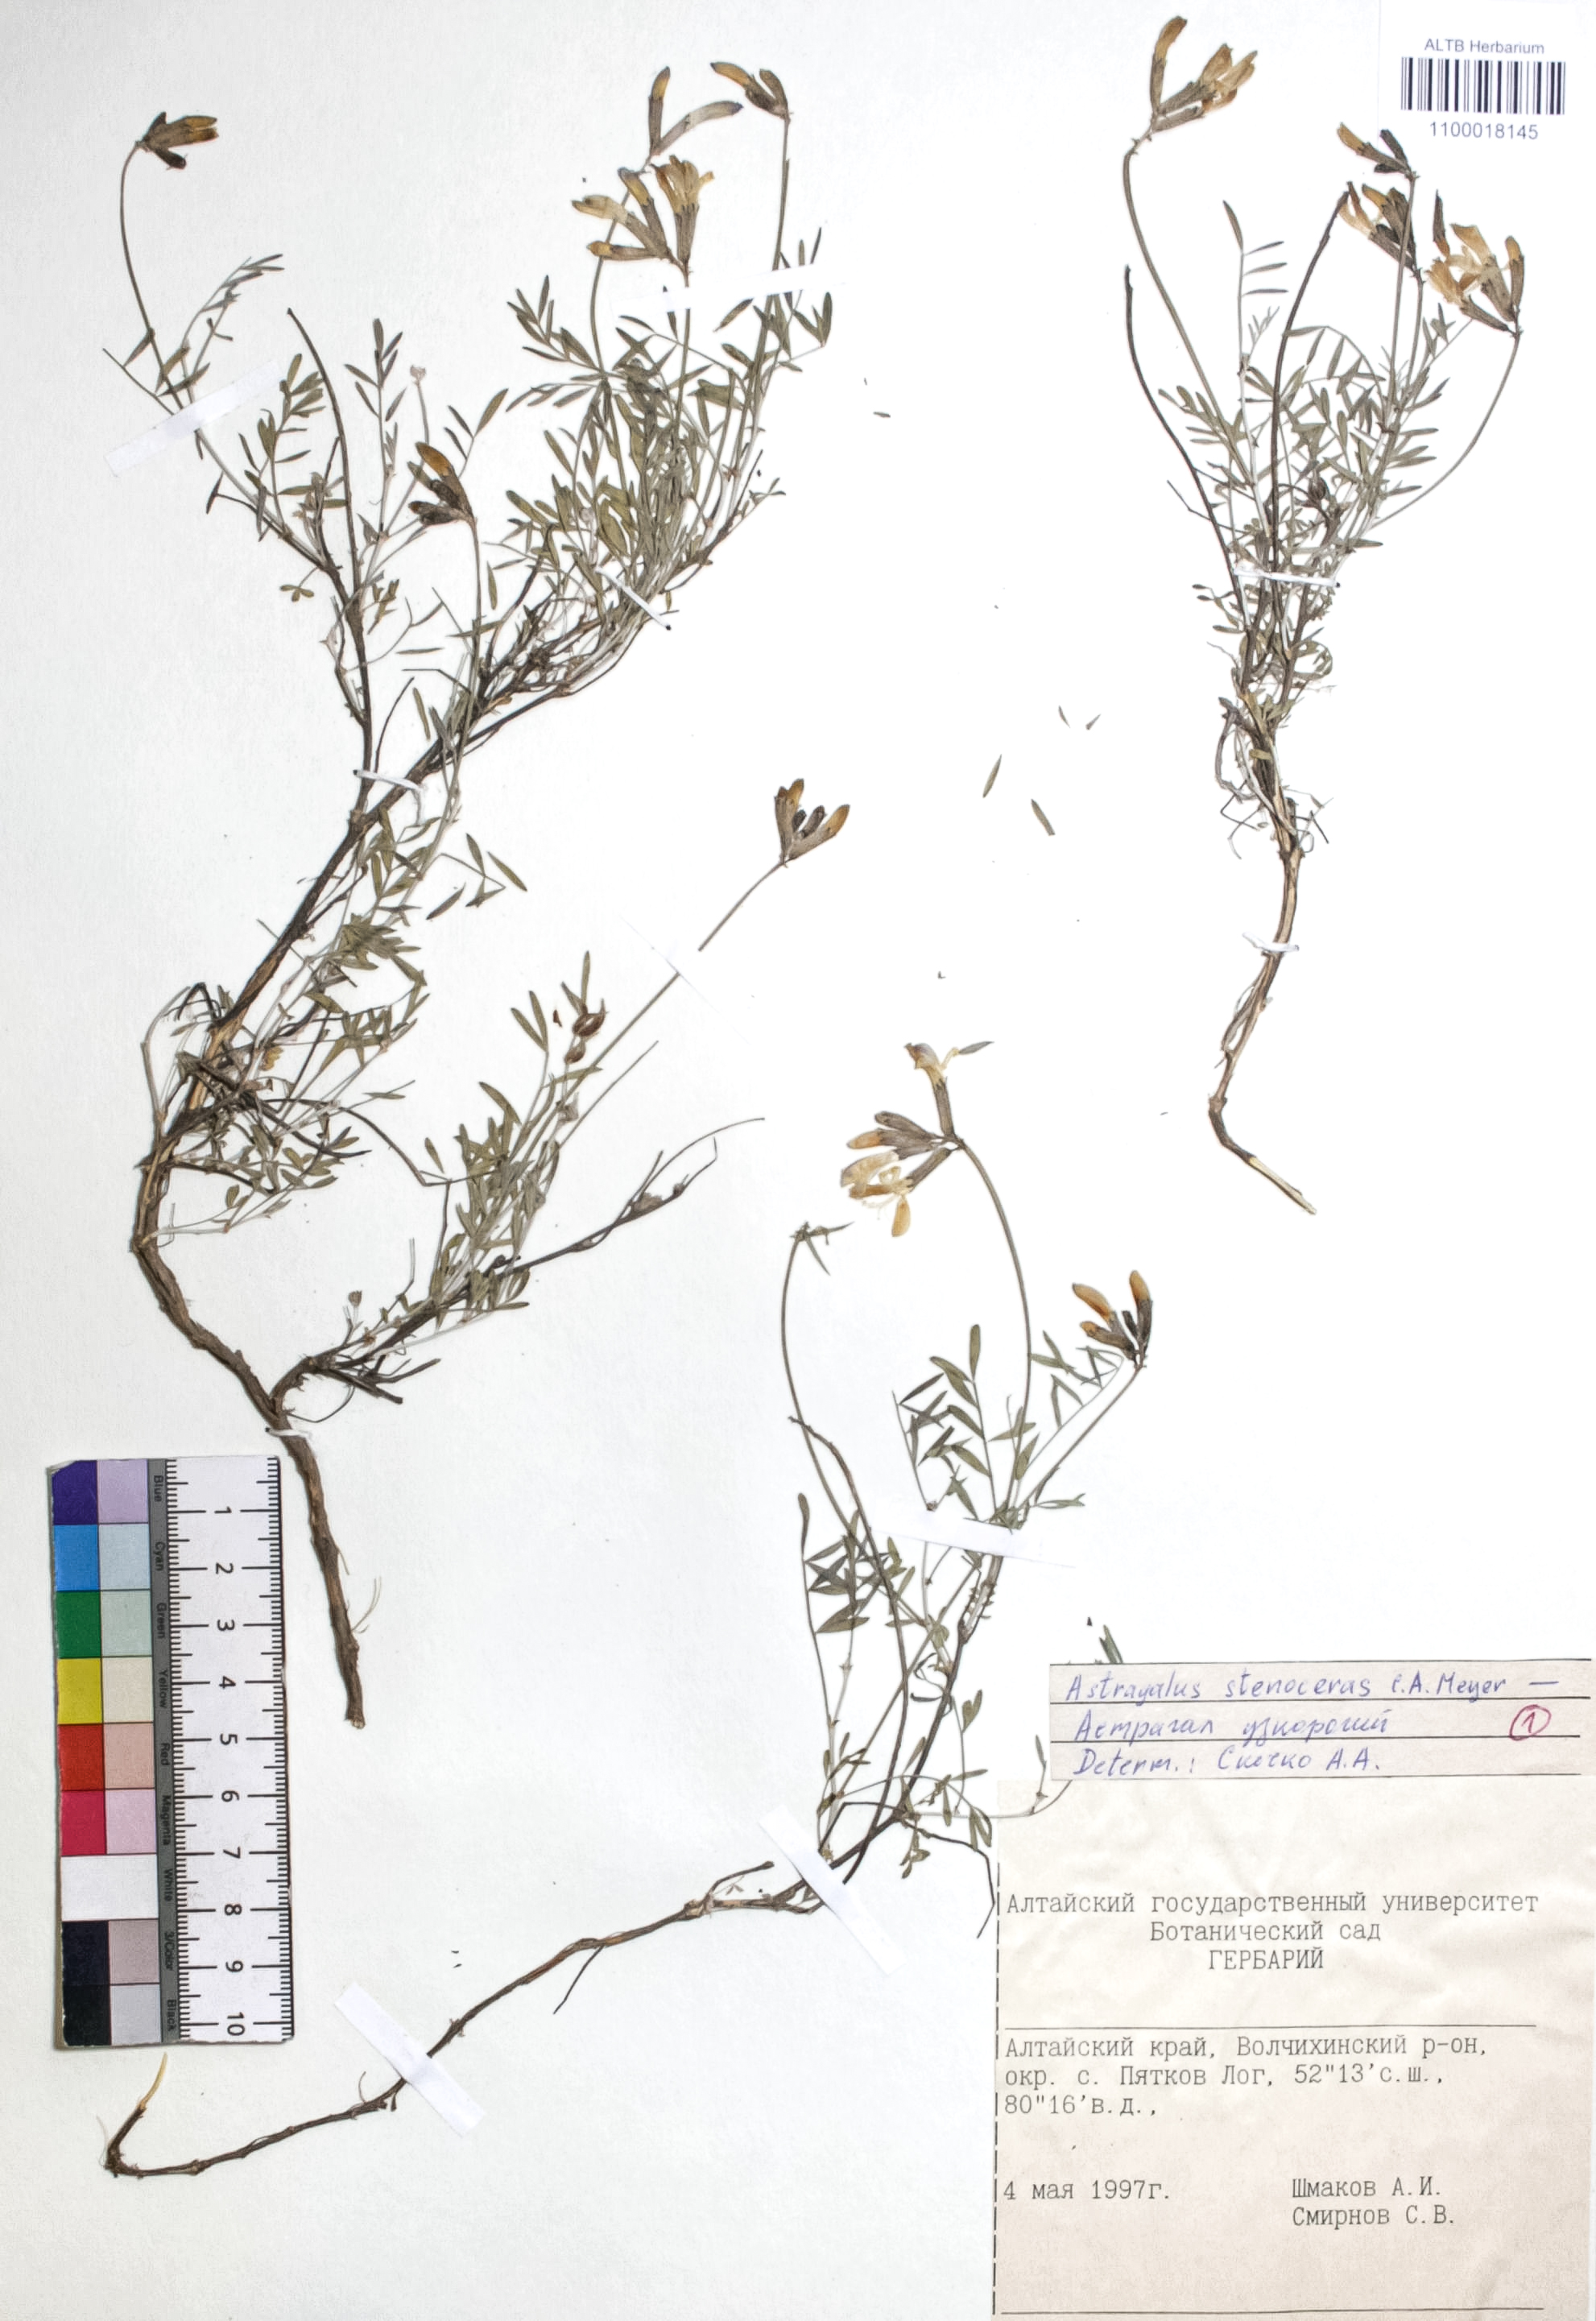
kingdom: Plantae
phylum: Tracheophyta
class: Magnoliopsida
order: Fabales
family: Fabaceae
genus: Astragalus
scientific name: Astragalus stenoceras
